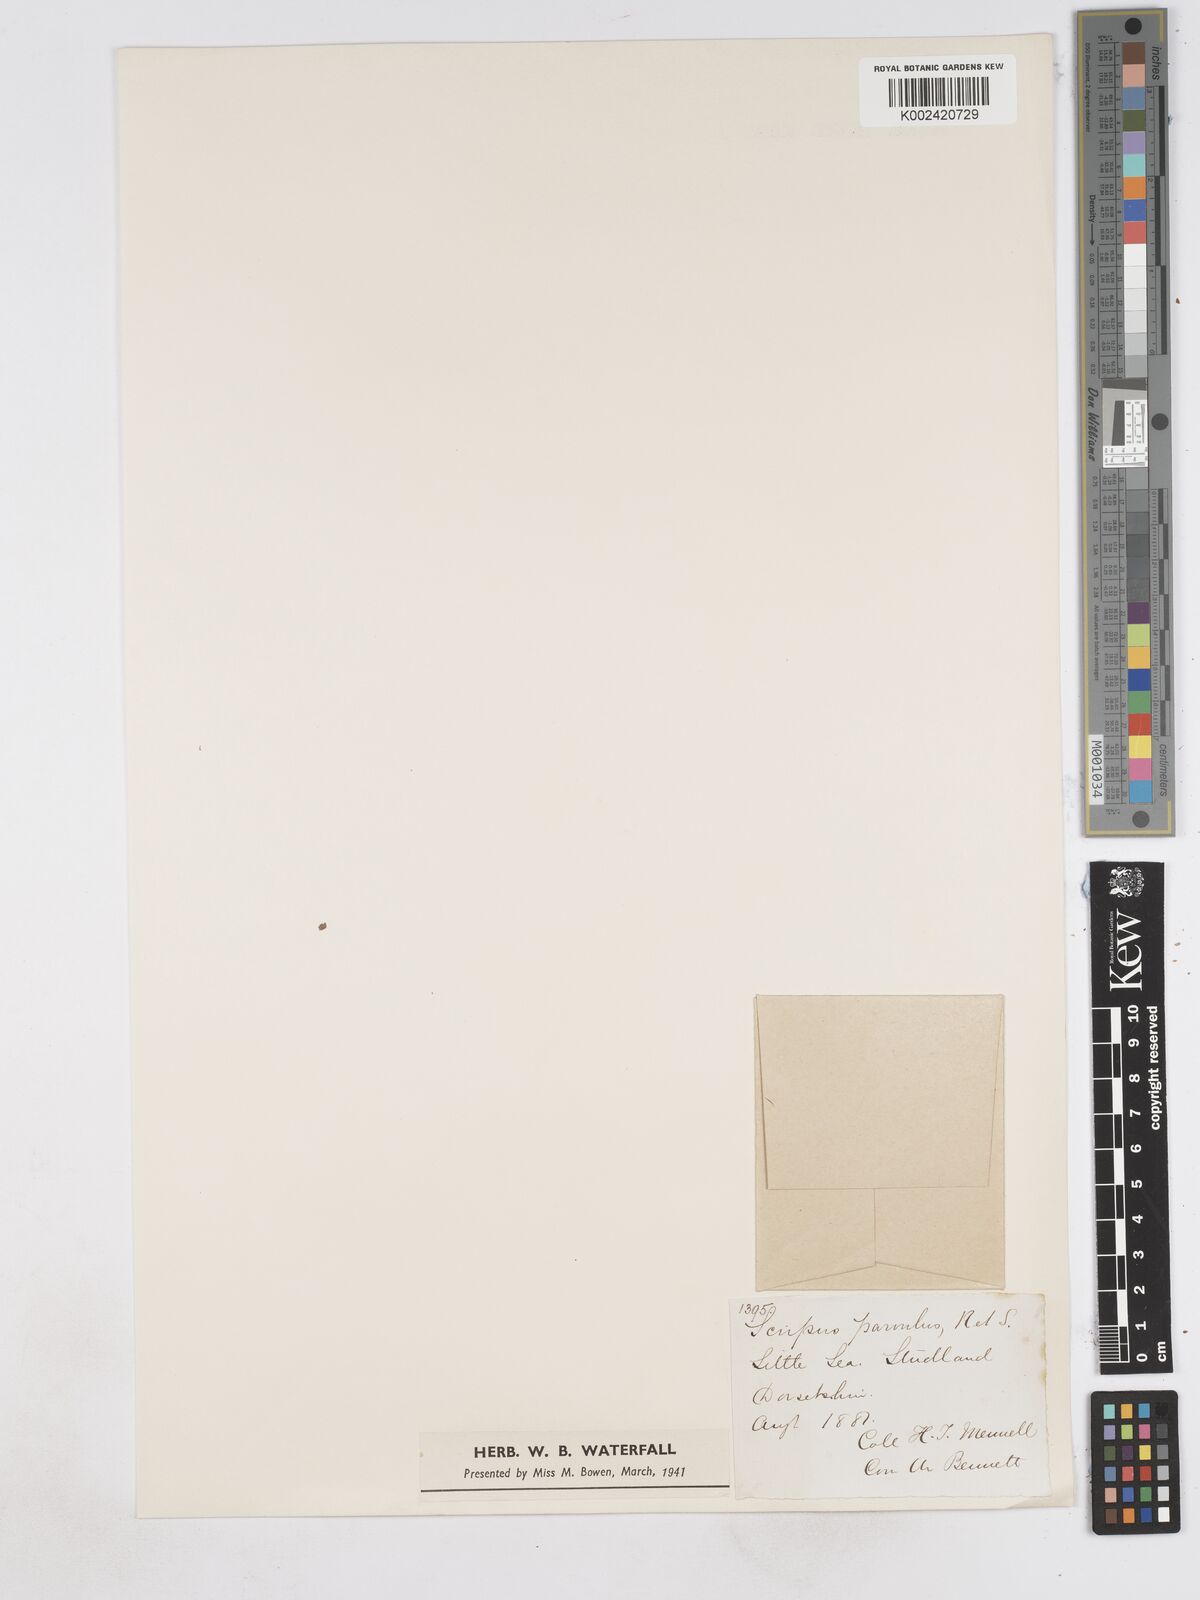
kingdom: Plantae
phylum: Tracheophyta
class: Liliopsida
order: Poales
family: Cyperaceae
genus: Eleocharis
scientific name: Eleocharis parvula
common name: Dwarf spike-rush
